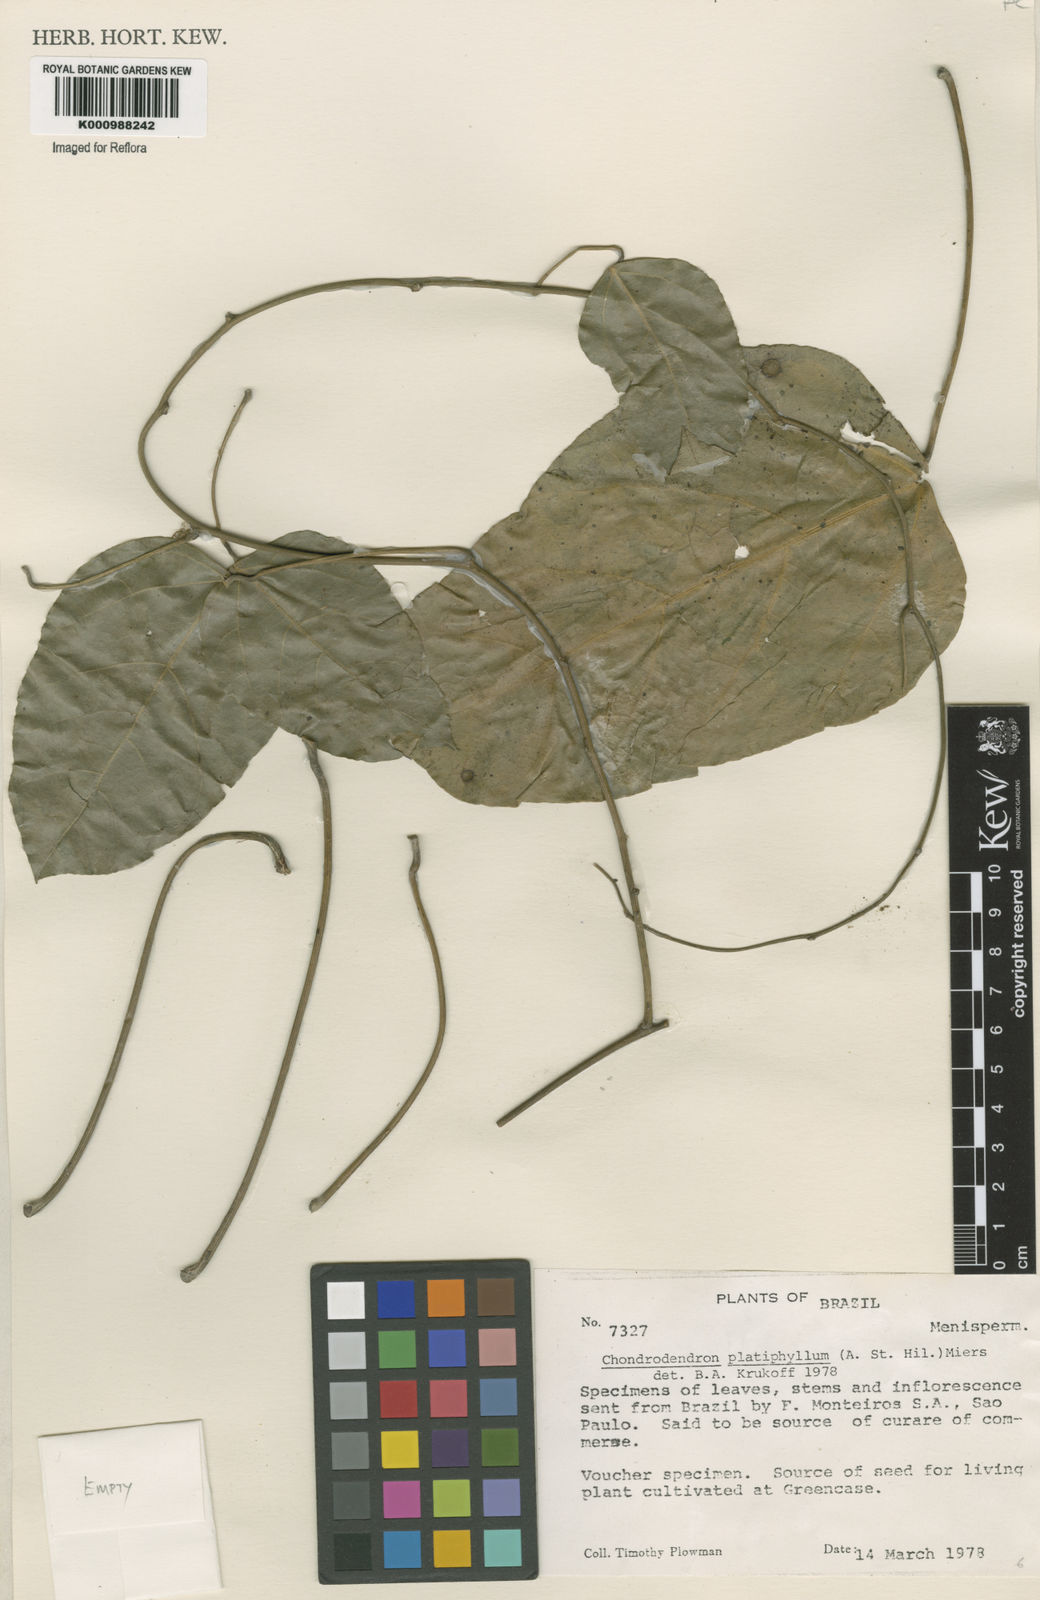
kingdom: Plantae
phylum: Tracheophyta
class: Magnoliopsida
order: Ranunculales
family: Menispermaceae
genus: Chondrodendron
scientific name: Chondrodendron platyphyllum
